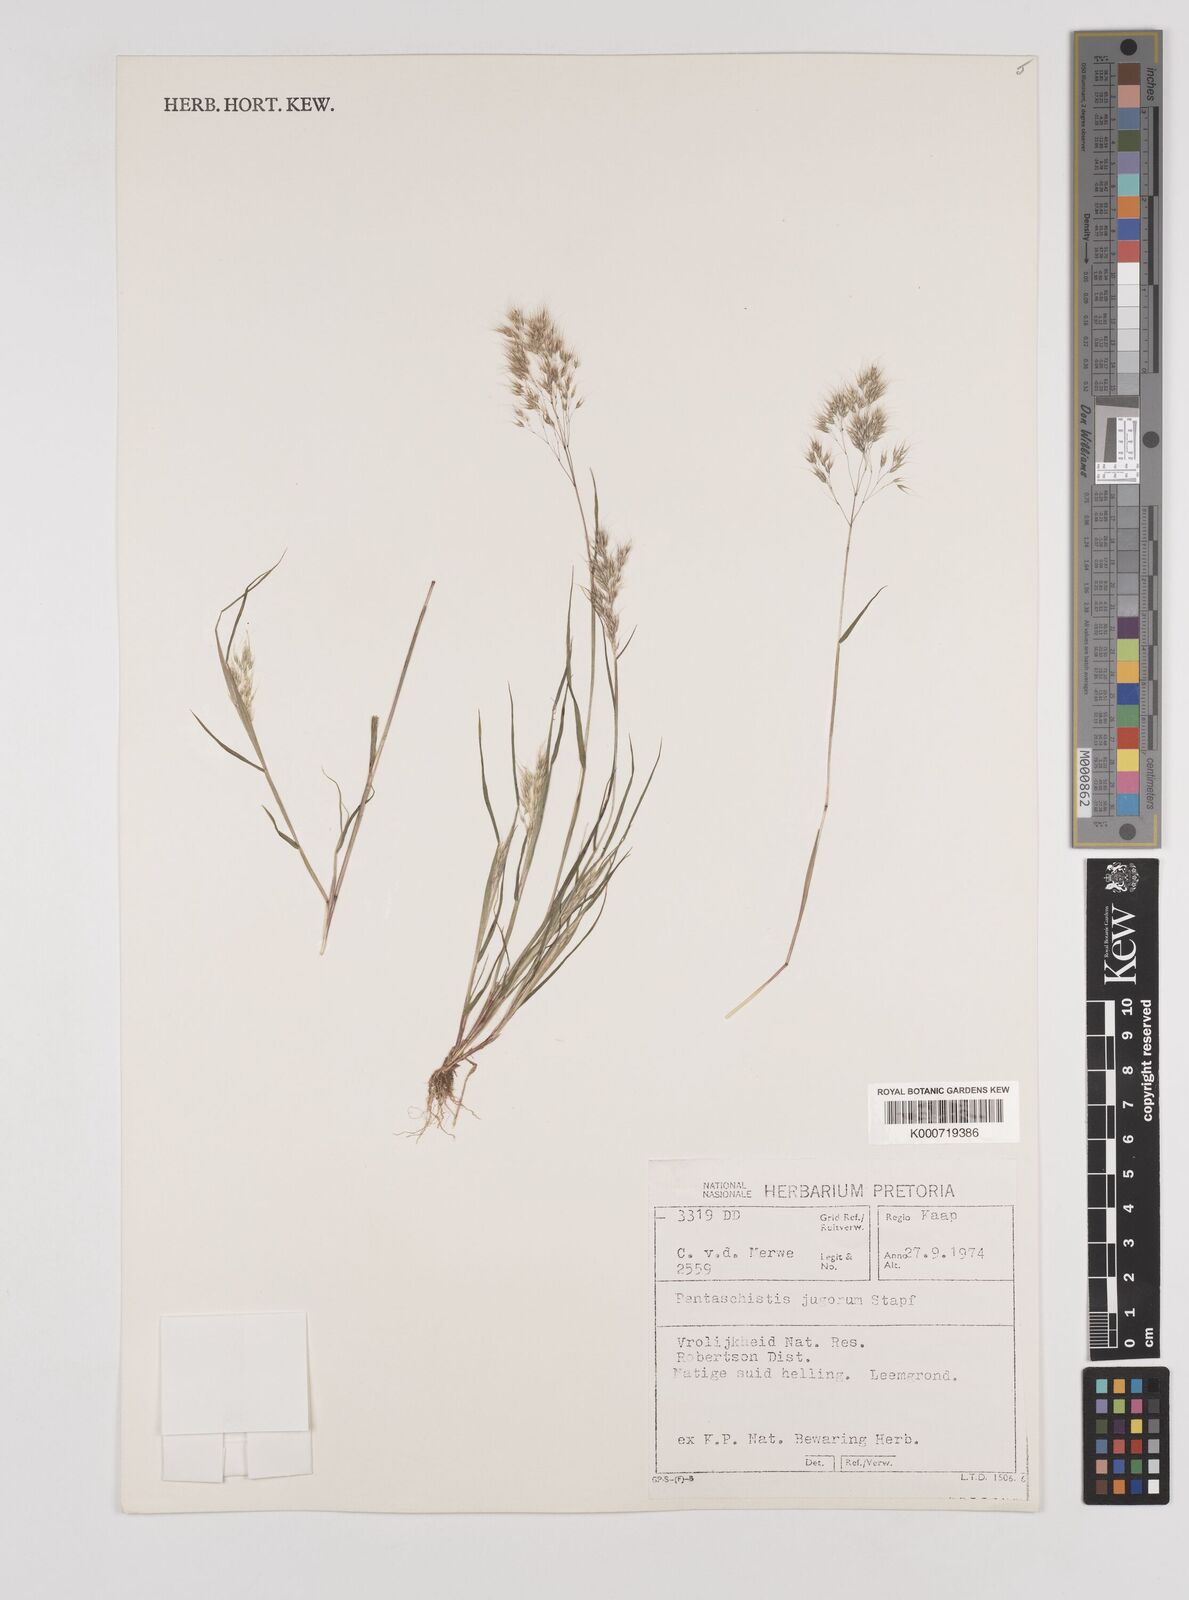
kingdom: Plantae
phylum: Tracheophyta
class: Liliopsida
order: Poales
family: Poaceae
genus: Pentameris
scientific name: Pentameris triseta
